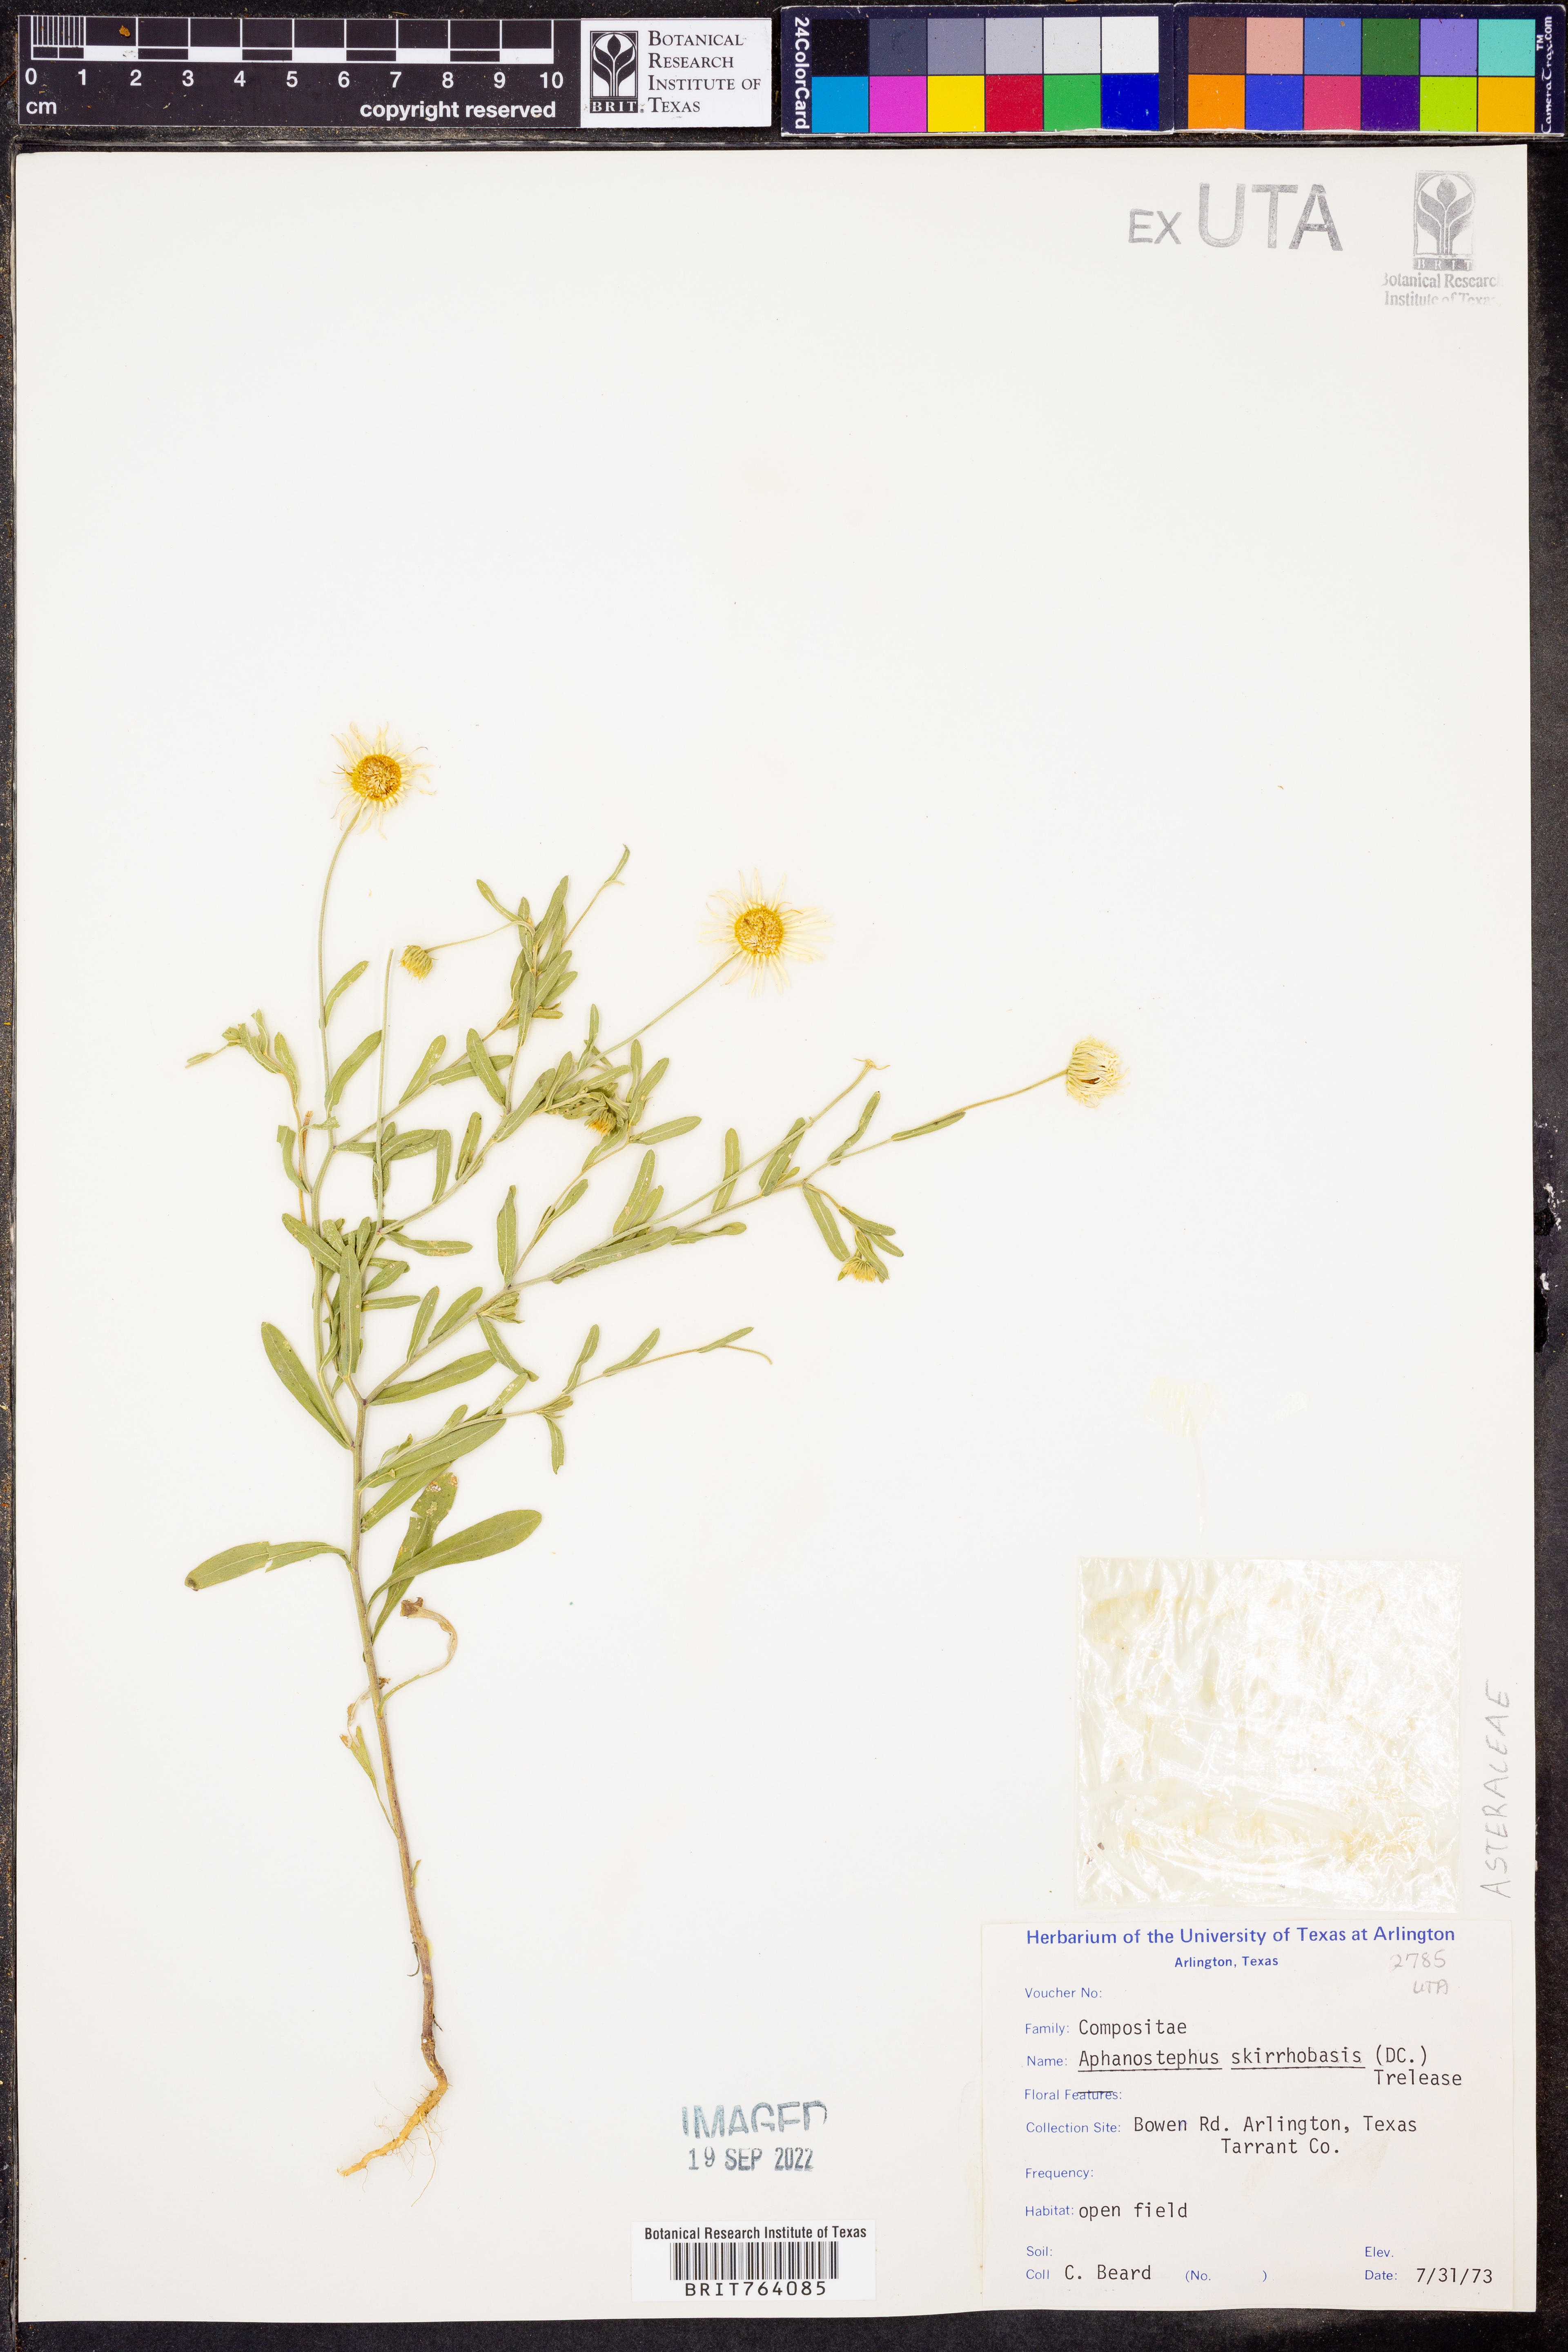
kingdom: Plantae
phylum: Tracheophyta
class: Magnoliopsida
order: Asterales
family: Asteraceae
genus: Aphanostephus
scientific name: Aphanostephus skirrhobasis
